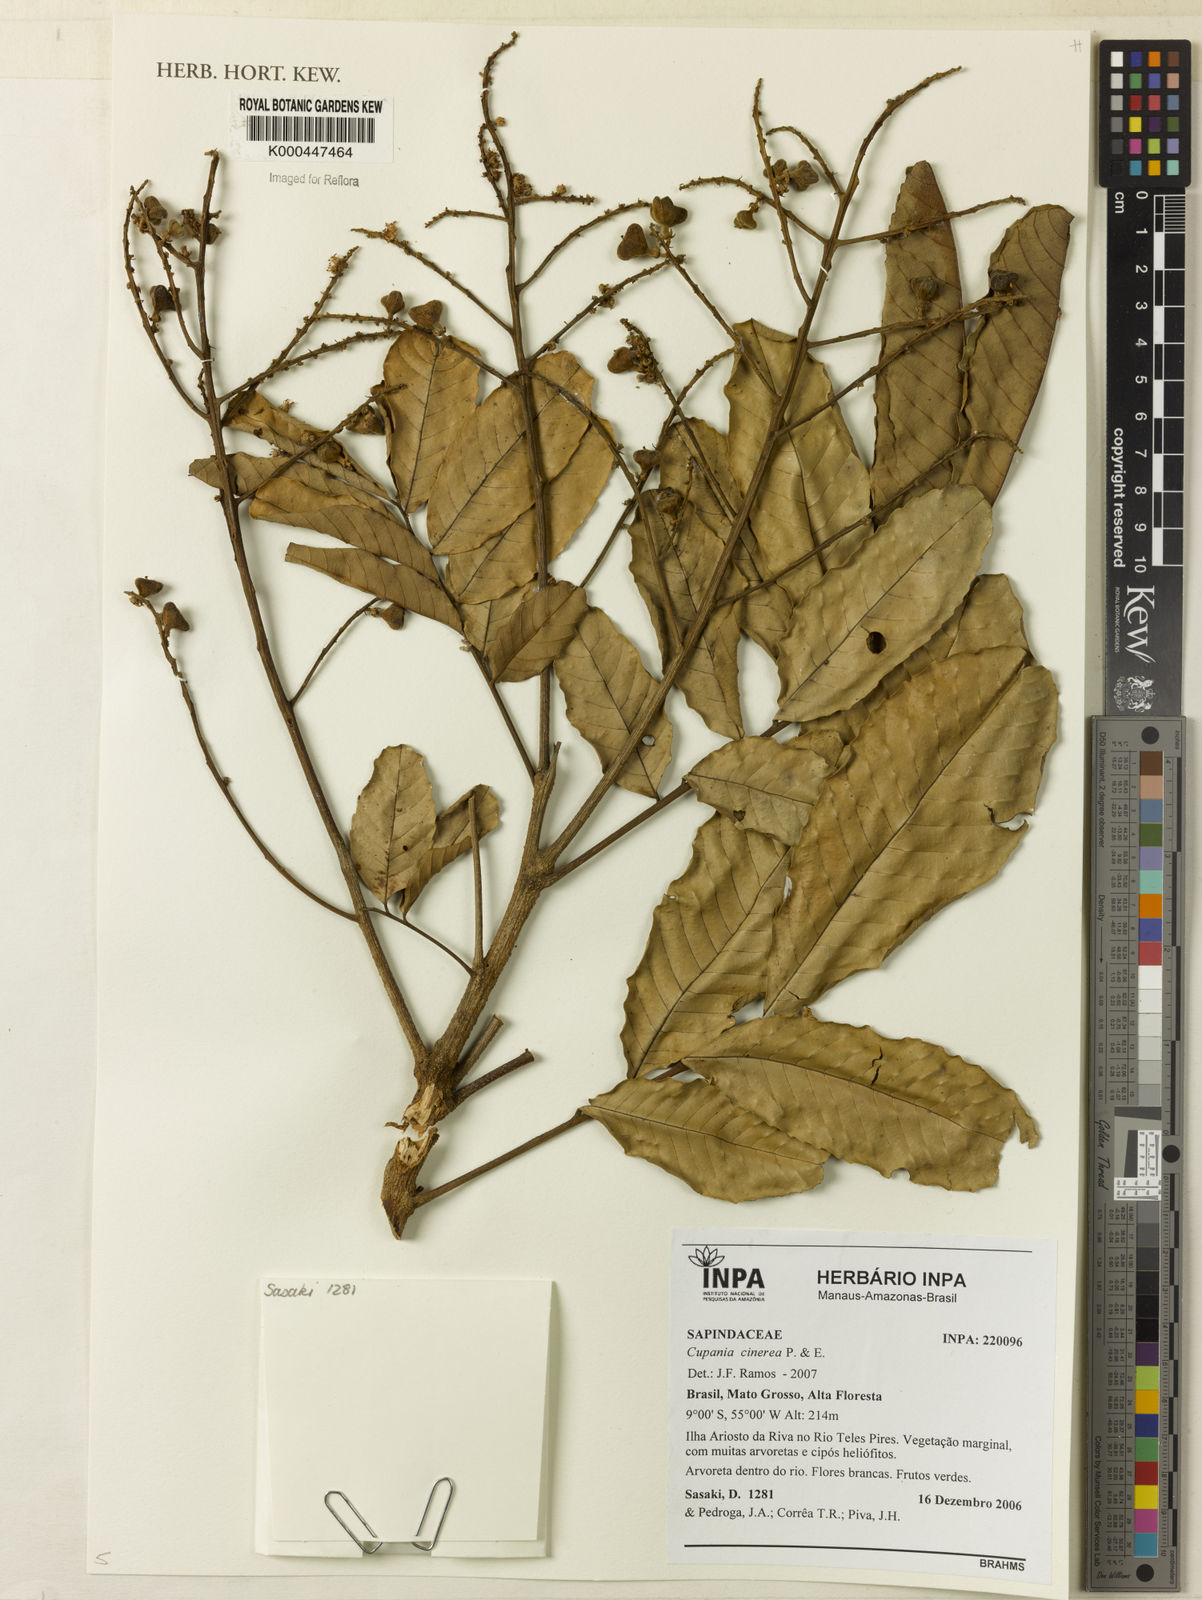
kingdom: Plantae
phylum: Tracheophyta
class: Magnoliopsida
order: Sapindales
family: Sapindaceae
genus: Cupania
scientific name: Cupania cinerea
